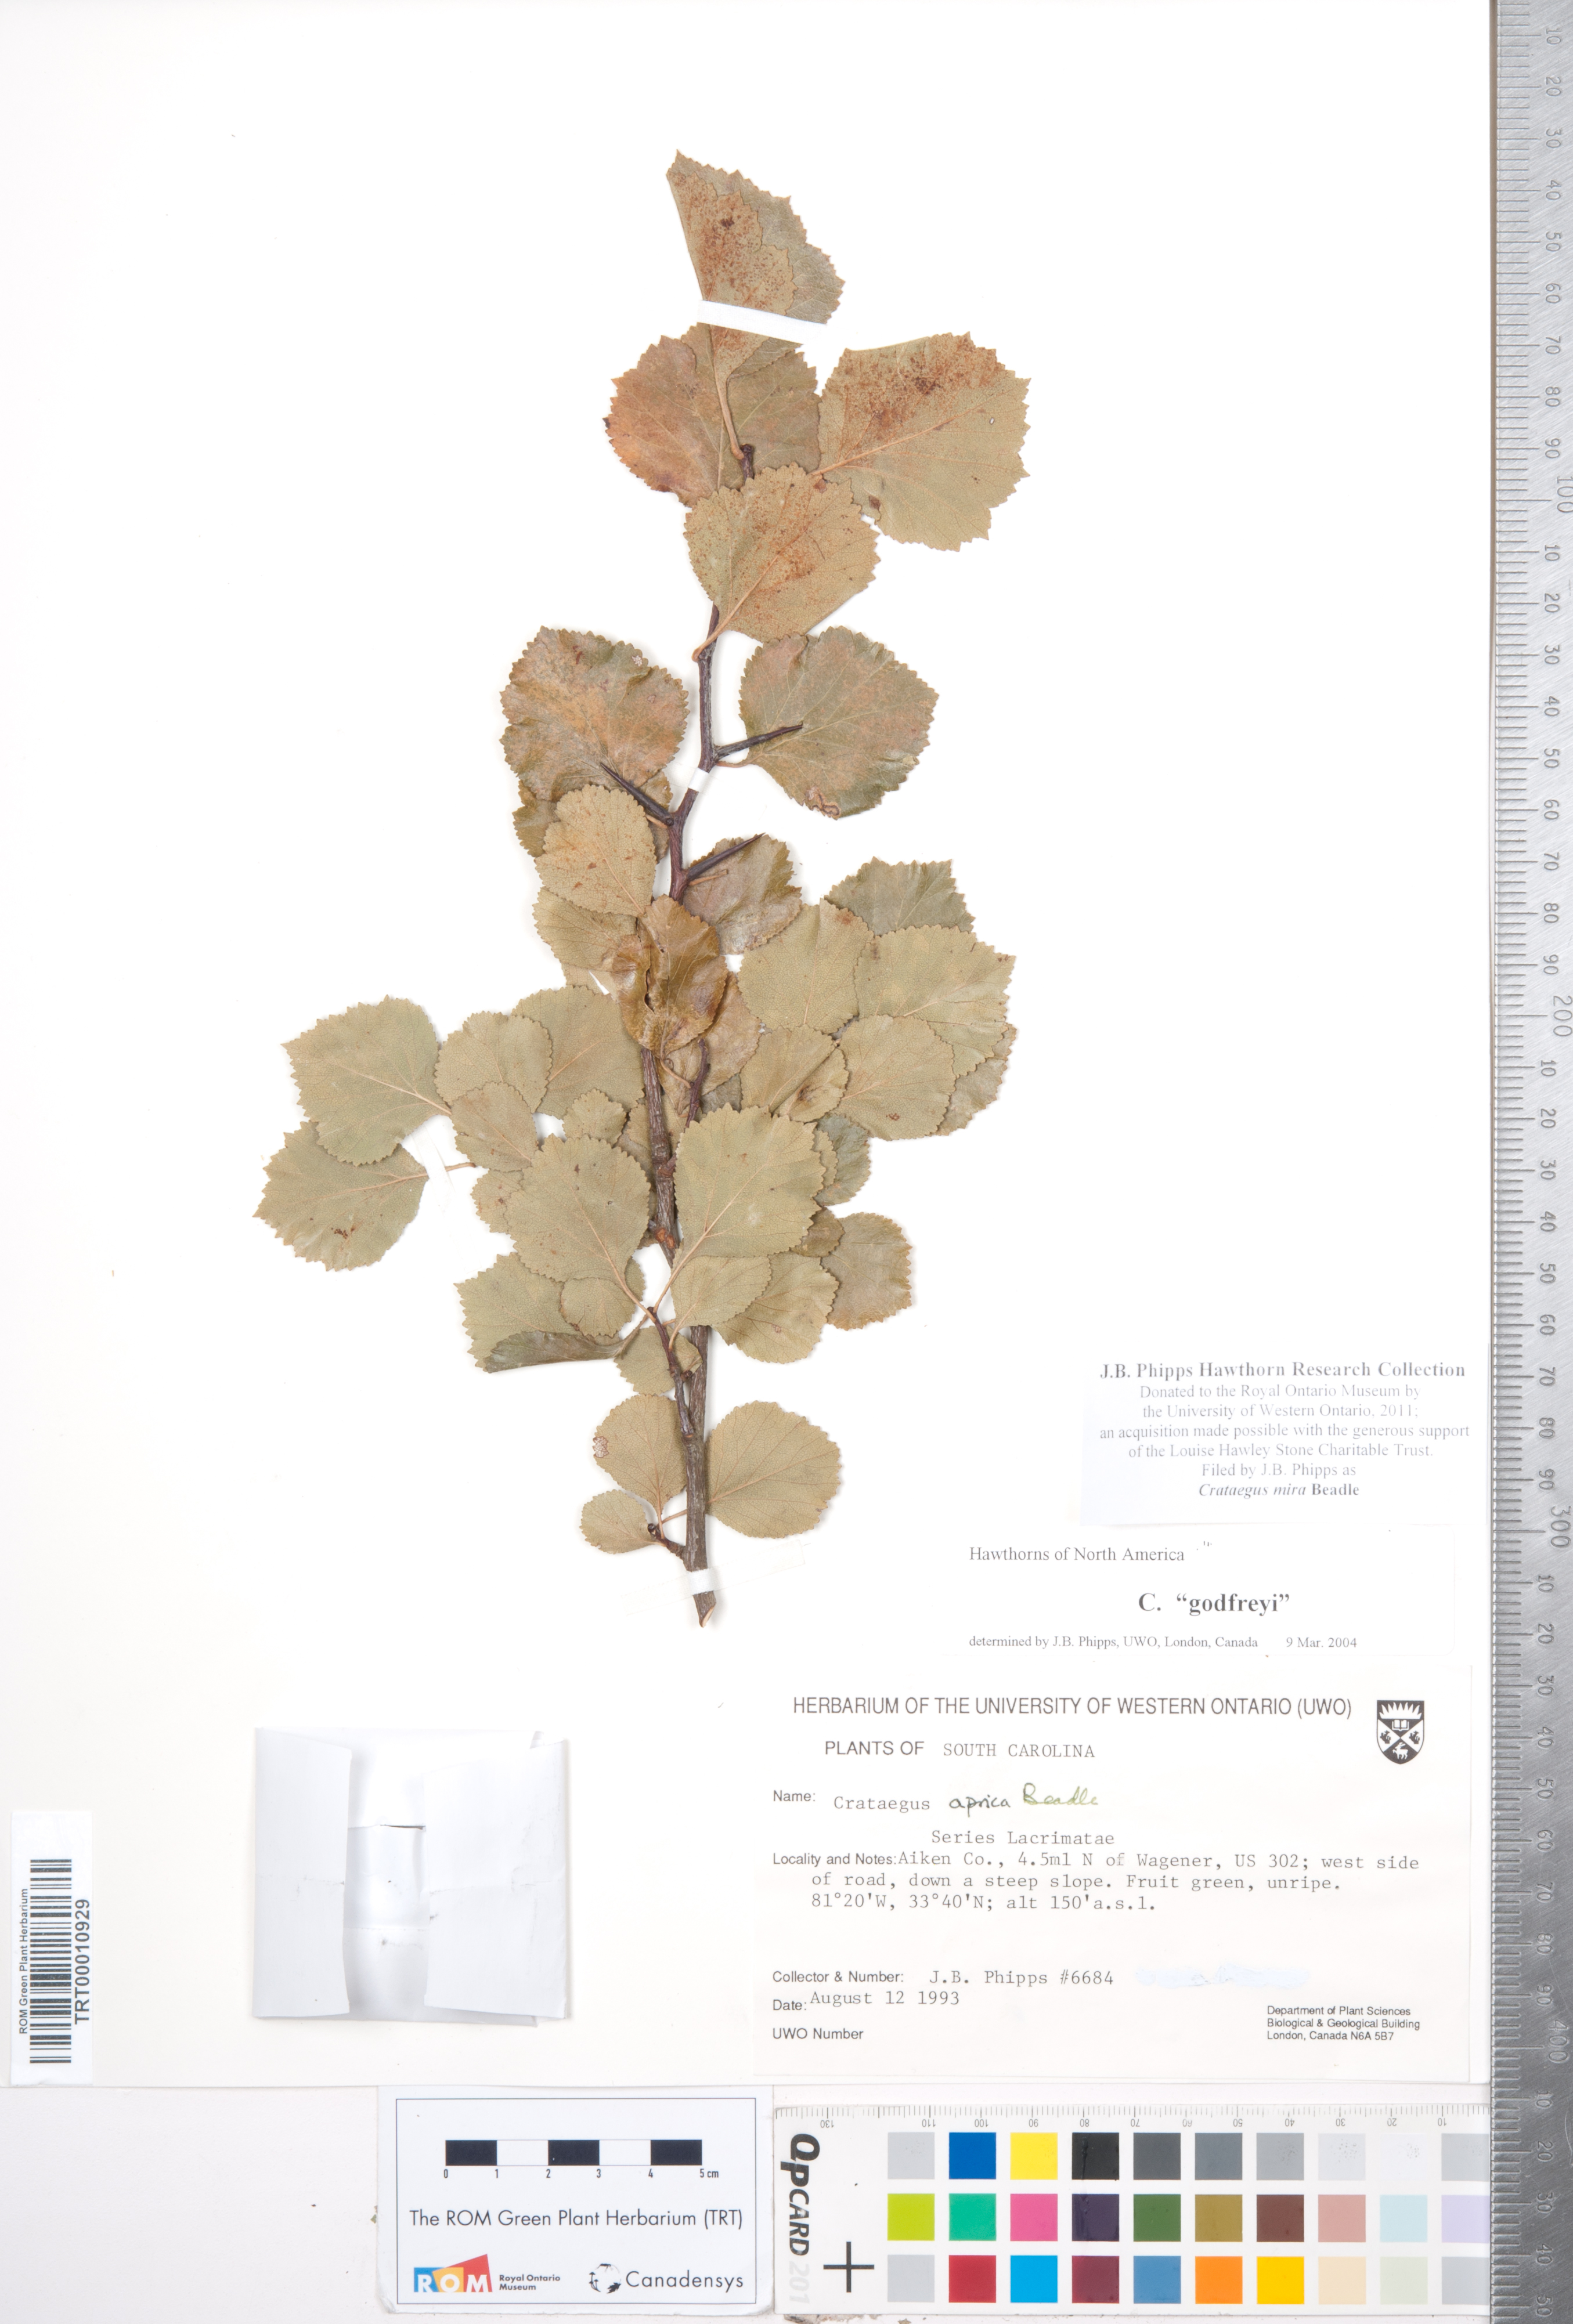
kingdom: Plantae
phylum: Tracheophyta
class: Magnoliopsida
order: Rosales
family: Rosaceae
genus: Crataegus
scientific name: Crataegus alleghaniensis
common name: Allegheny hawthorn
